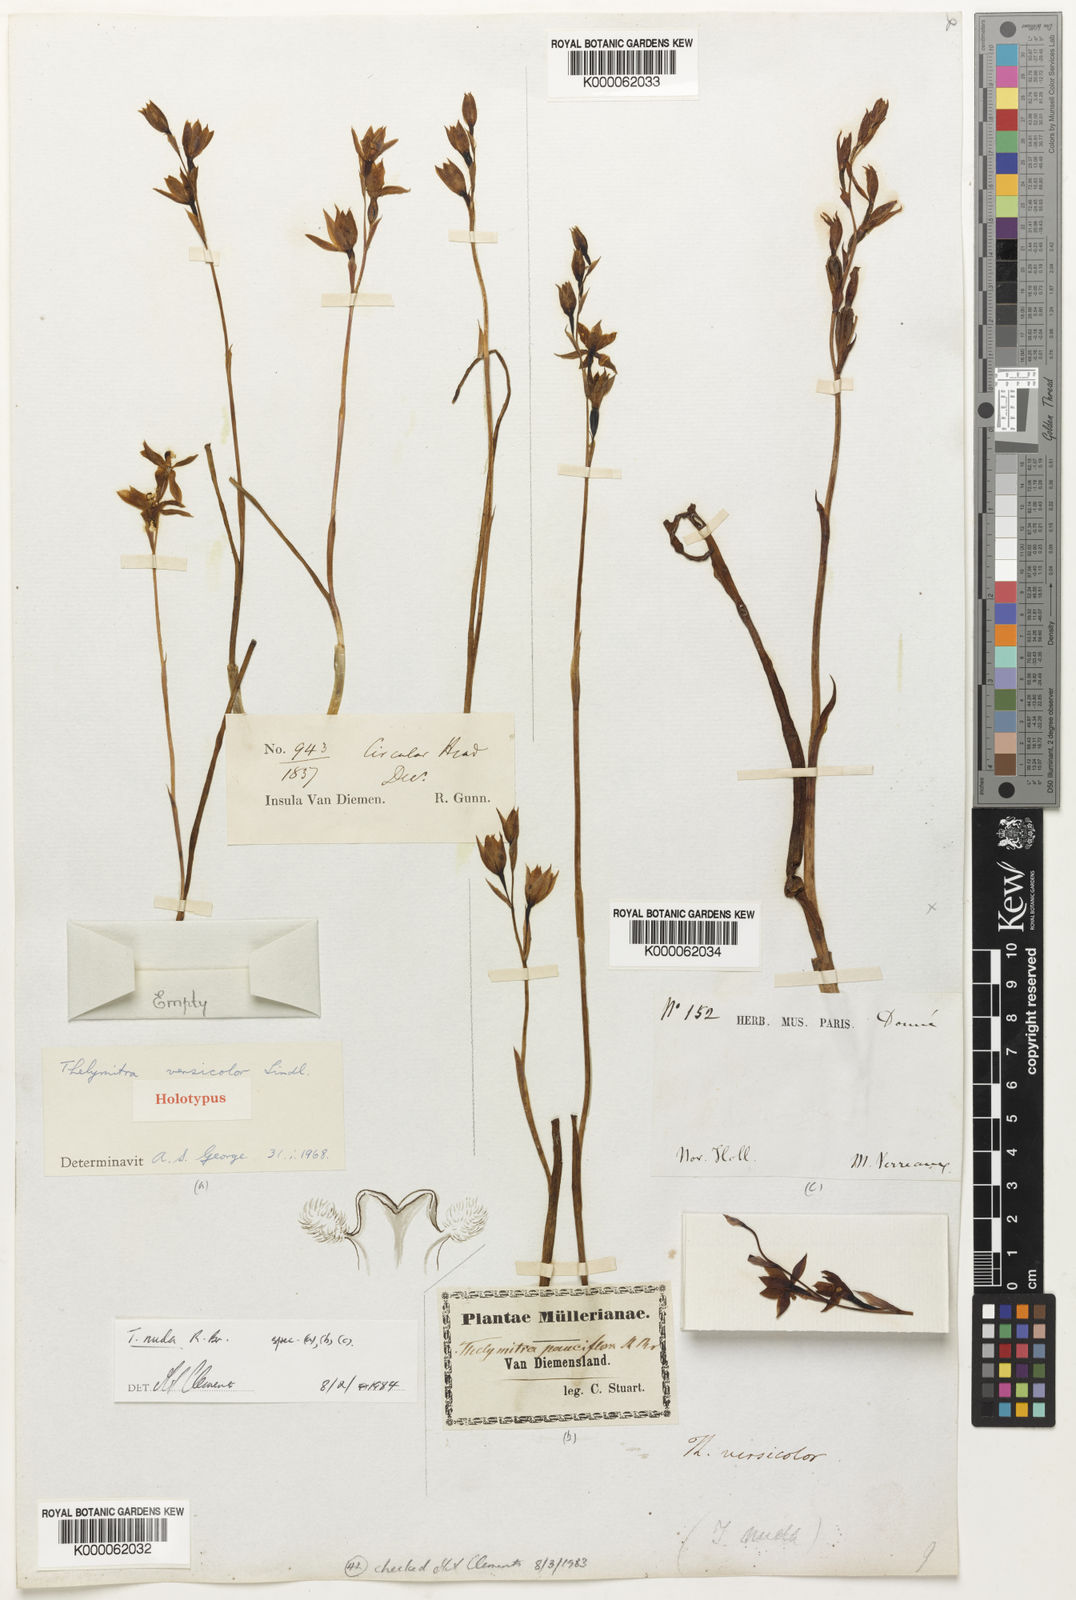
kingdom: Plantae
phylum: Tracheophyta
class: Liliopsida
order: Asparagales
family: Orchidaceae
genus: Thelymitra
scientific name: Thelymitra nuda
